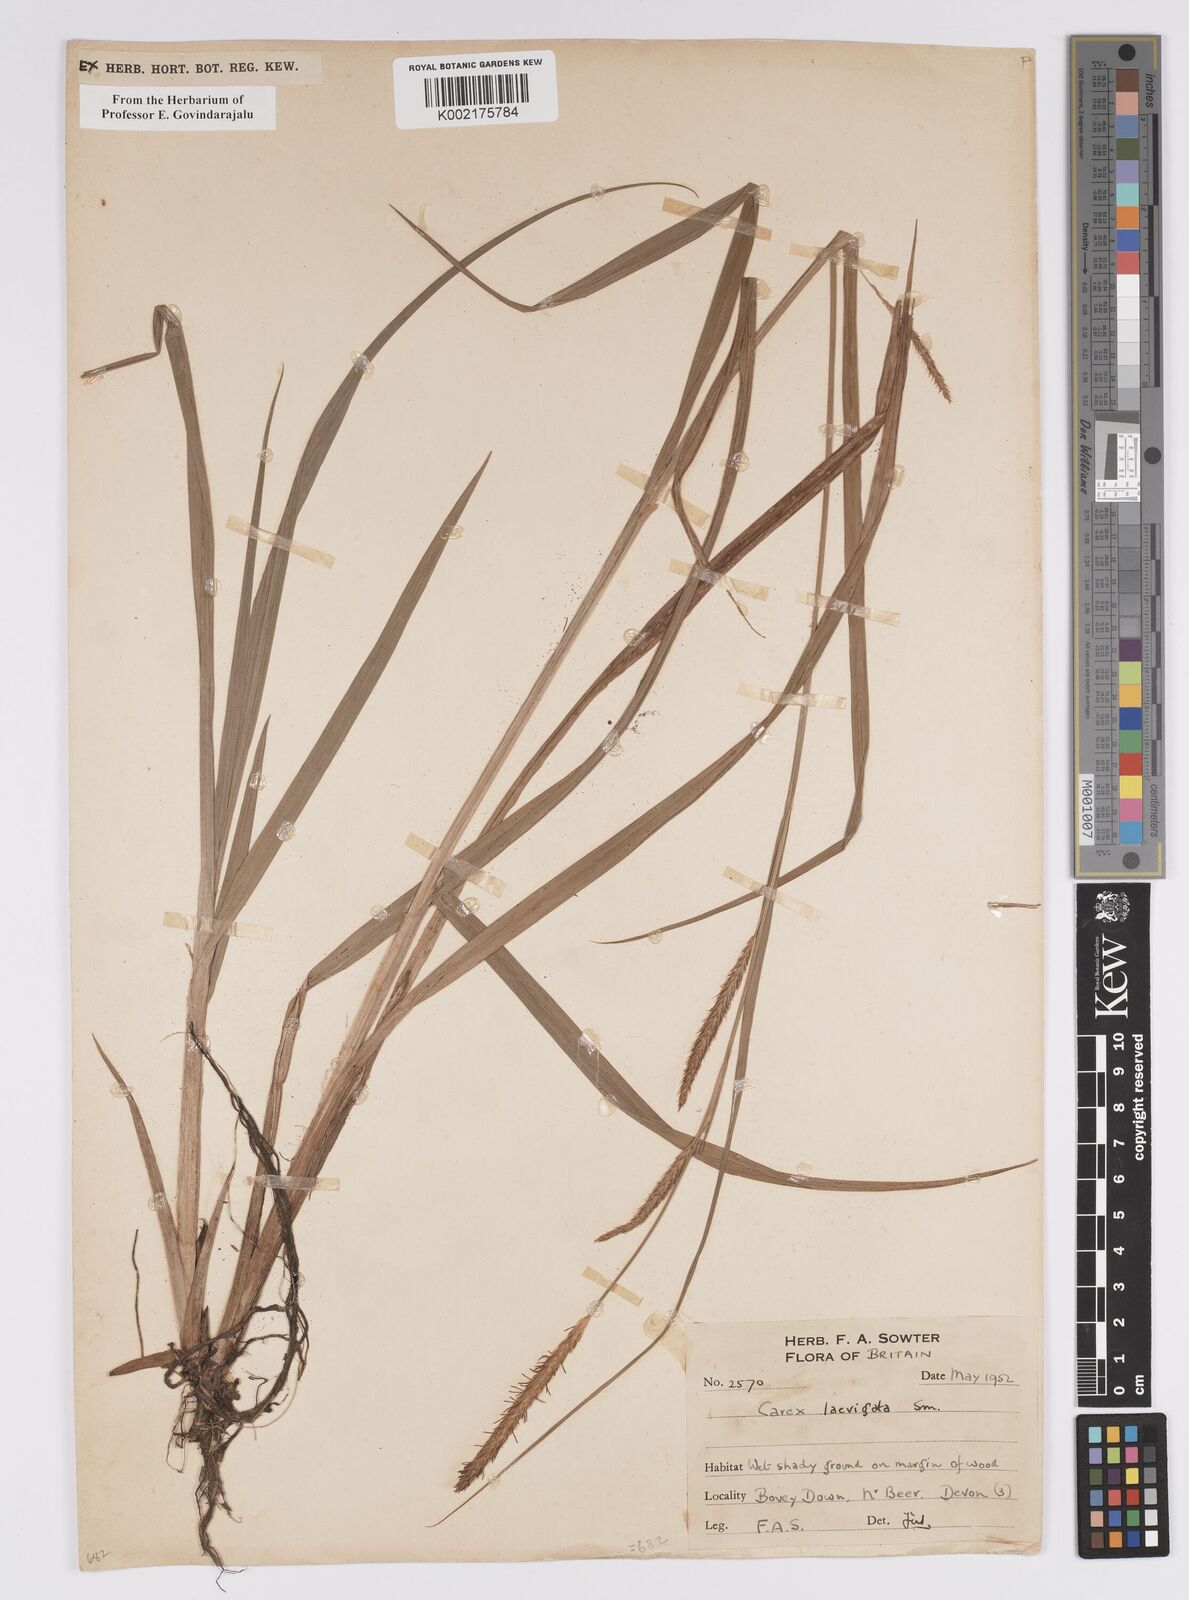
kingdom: Plantae
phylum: Tracheophyta
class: Liliopsida
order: Poales
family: Cyperaceae
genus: Carex
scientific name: Carex laevigata
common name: Smooth-stalked sedge
